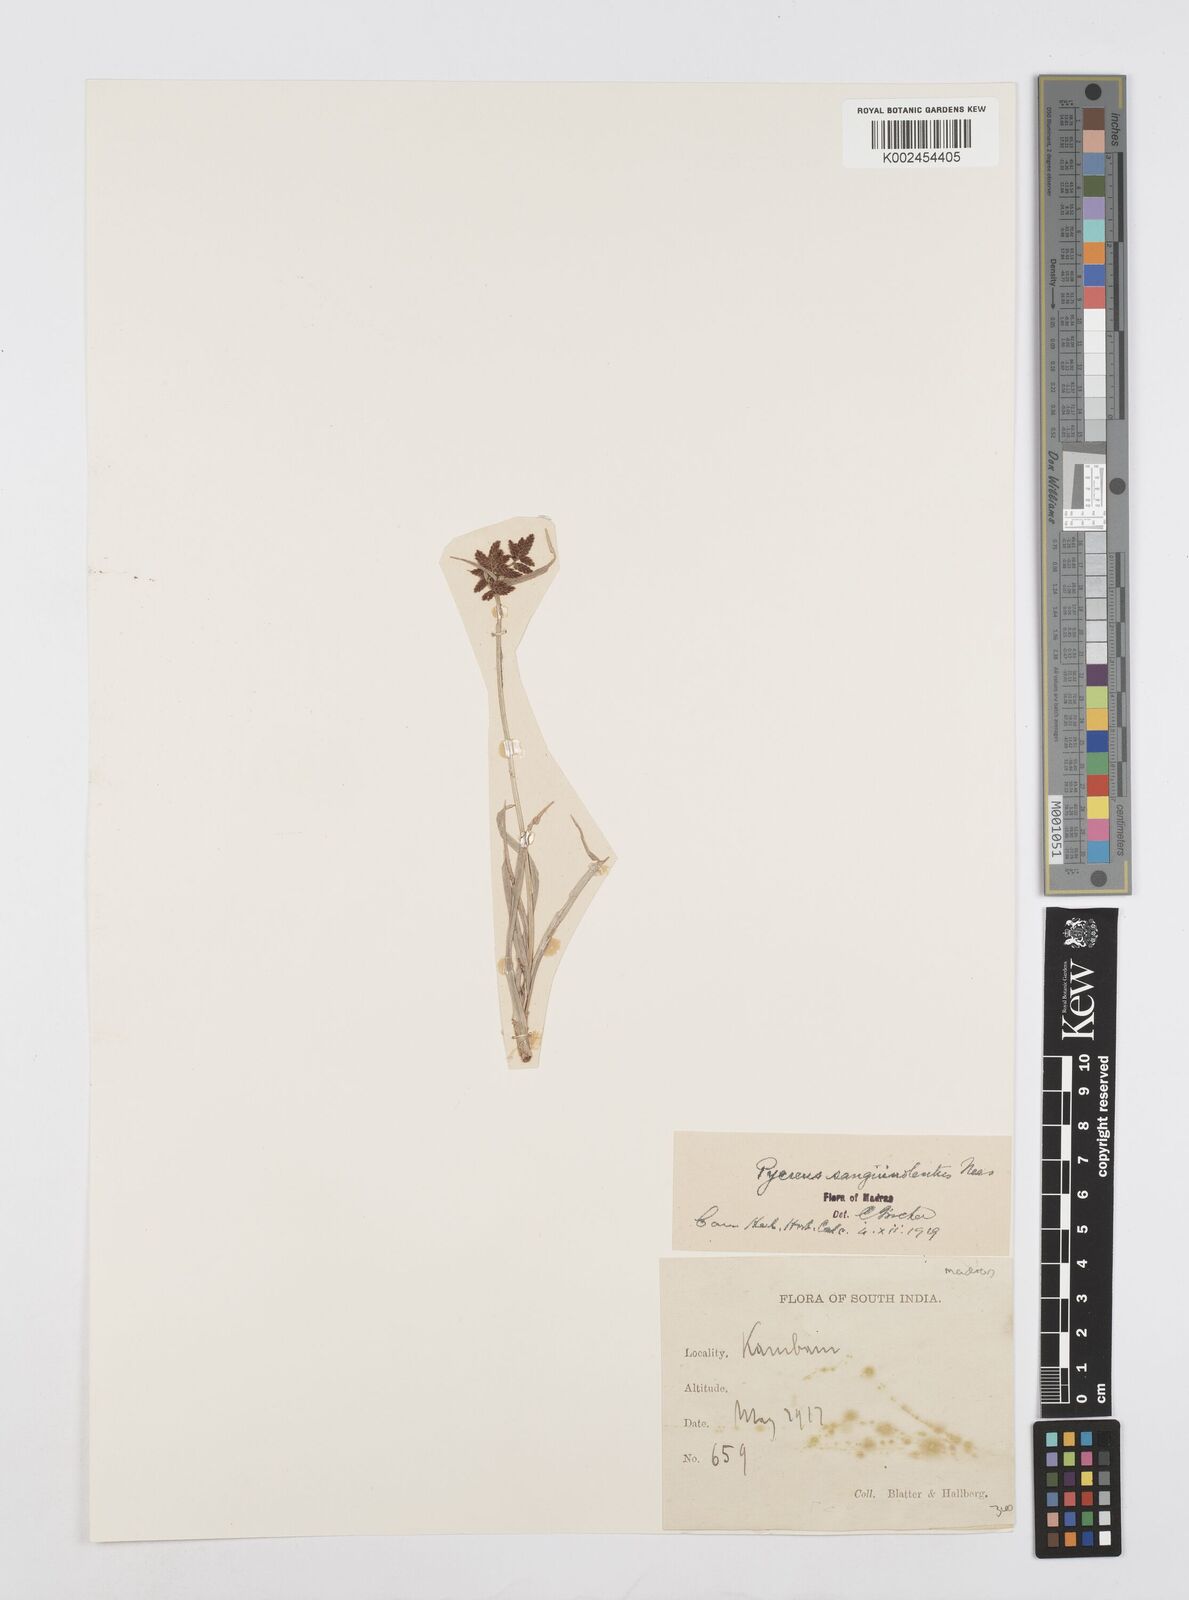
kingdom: Plantae
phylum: Tracheophyta
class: Liliopsida
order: Poales
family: Cyperaceae
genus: Cyperus
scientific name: Cyperus sanguinolentus
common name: Purpleglume flatsedge
